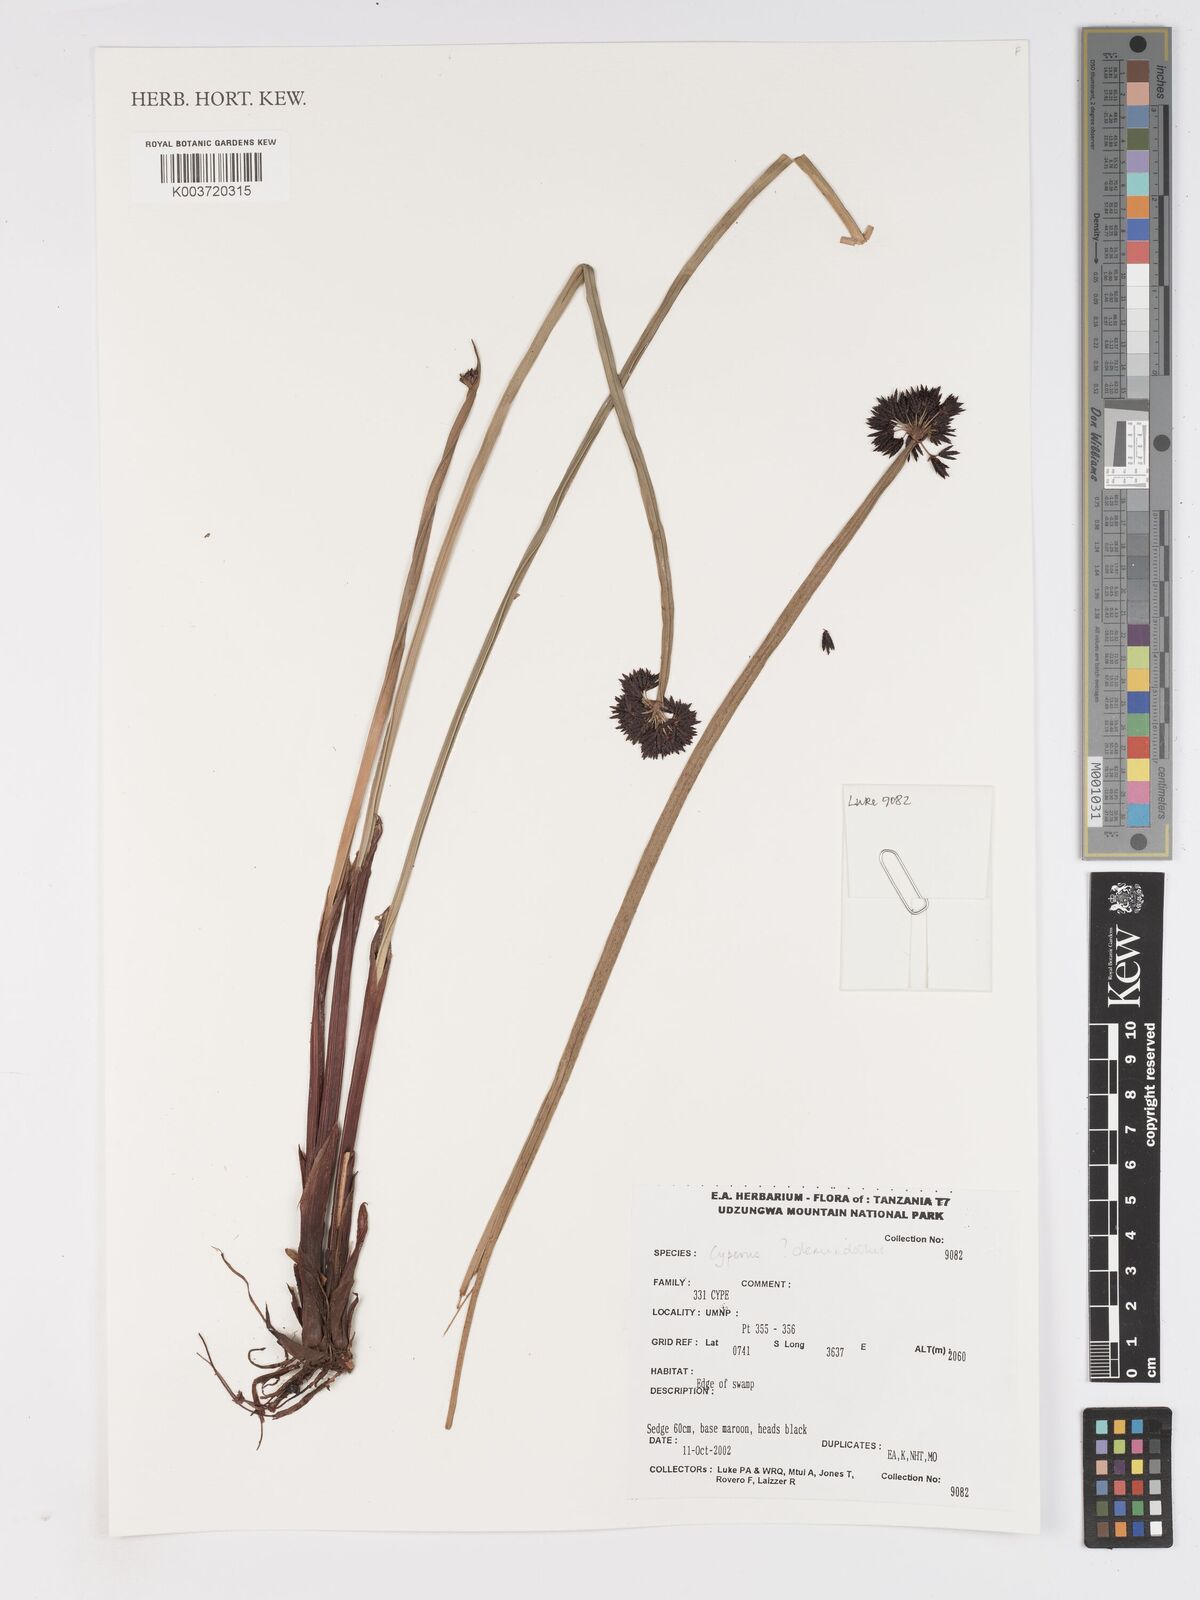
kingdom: Plantae
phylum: Tracheophyta
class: Liliopsida
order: Poales
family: Cyperaceae
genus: Cyperus
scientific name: Cyperus
